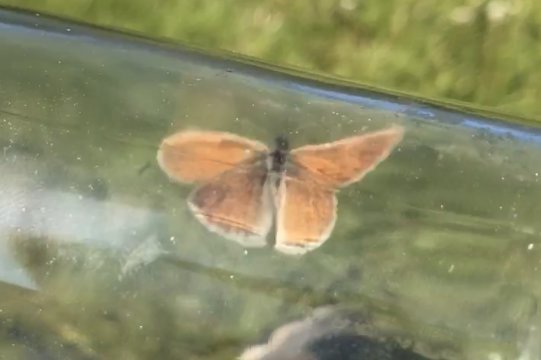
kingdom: Animalia
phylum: Arthropoda
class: Insecta
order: Lepidoptera
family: Nymphalidae
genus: Coenonympha
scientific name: Coenonympha tullia
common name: Large Heath
